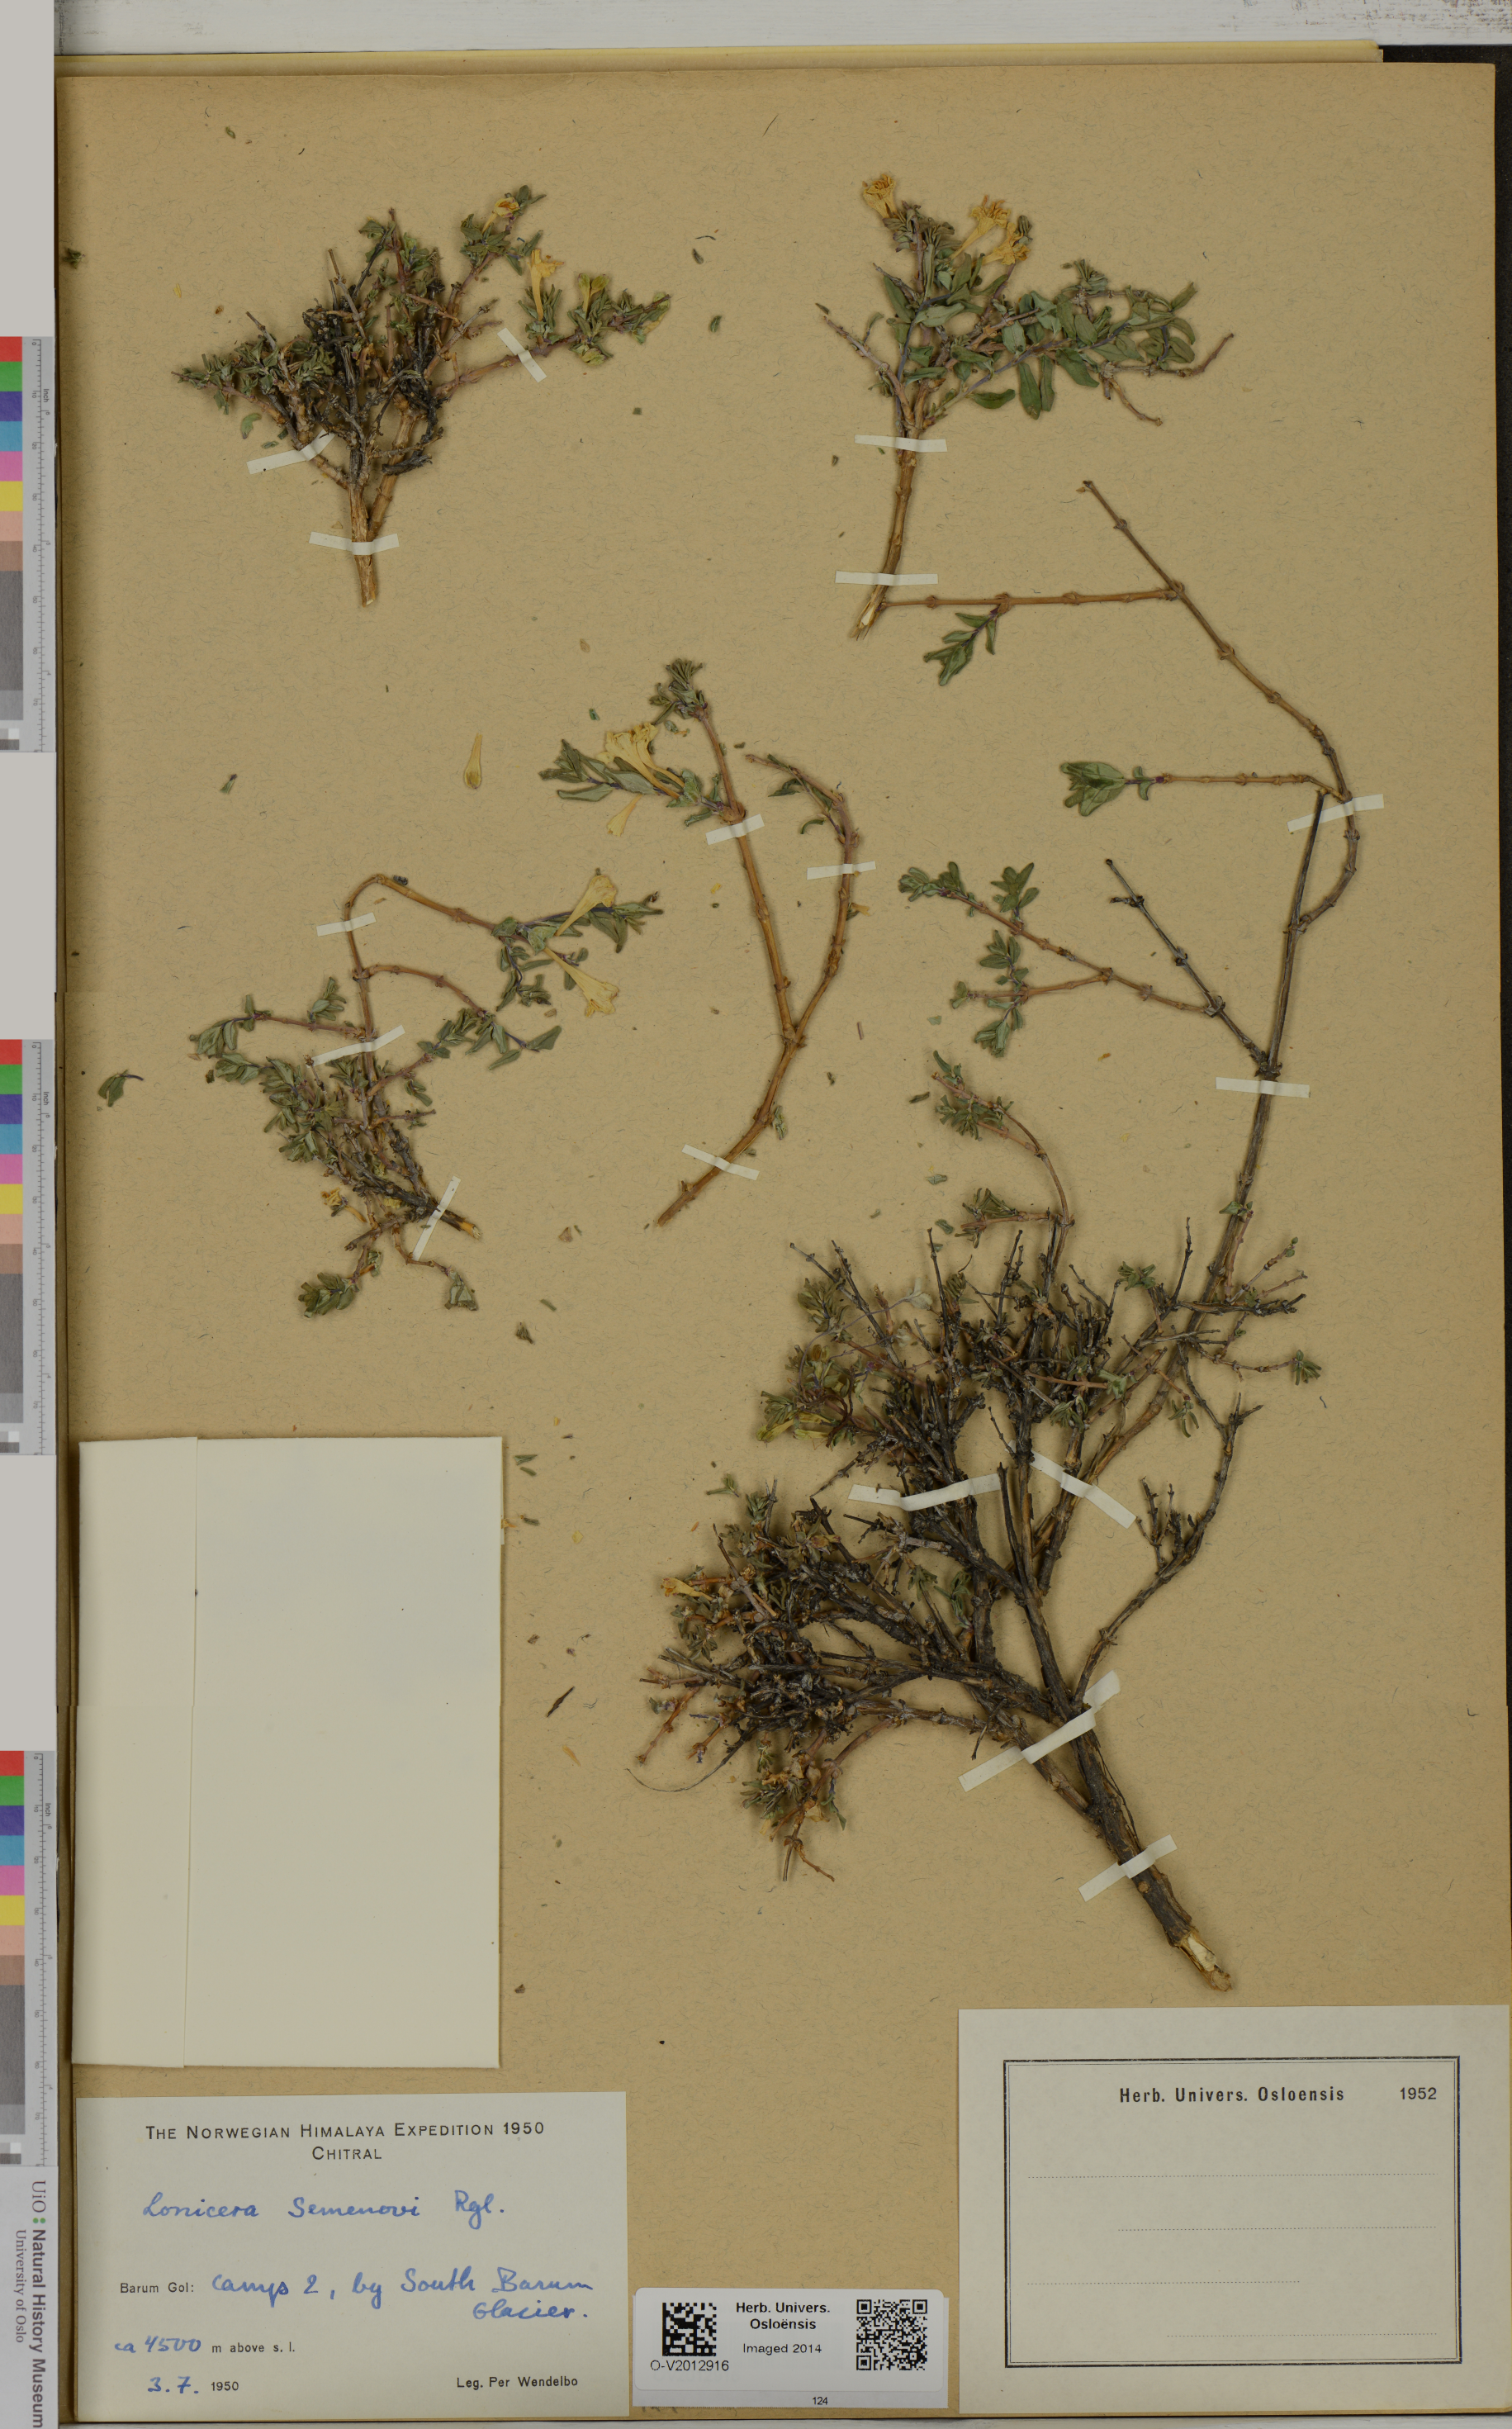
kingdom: Plantae
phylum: Tracheophyta
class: Magnoliopsida
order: Dipsacales
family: Caprifoliaceae
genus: Lonicera
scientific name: Lonicera semenovii
